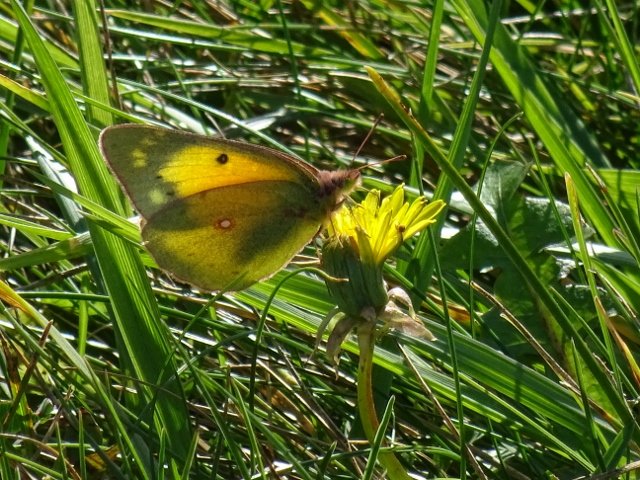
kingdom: Animalia
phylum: Arthropoda
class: Insecta
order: Lepidoptera
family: Pieridae
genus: Colias
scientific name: Colias eurytheme
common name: Orange Sulphur
